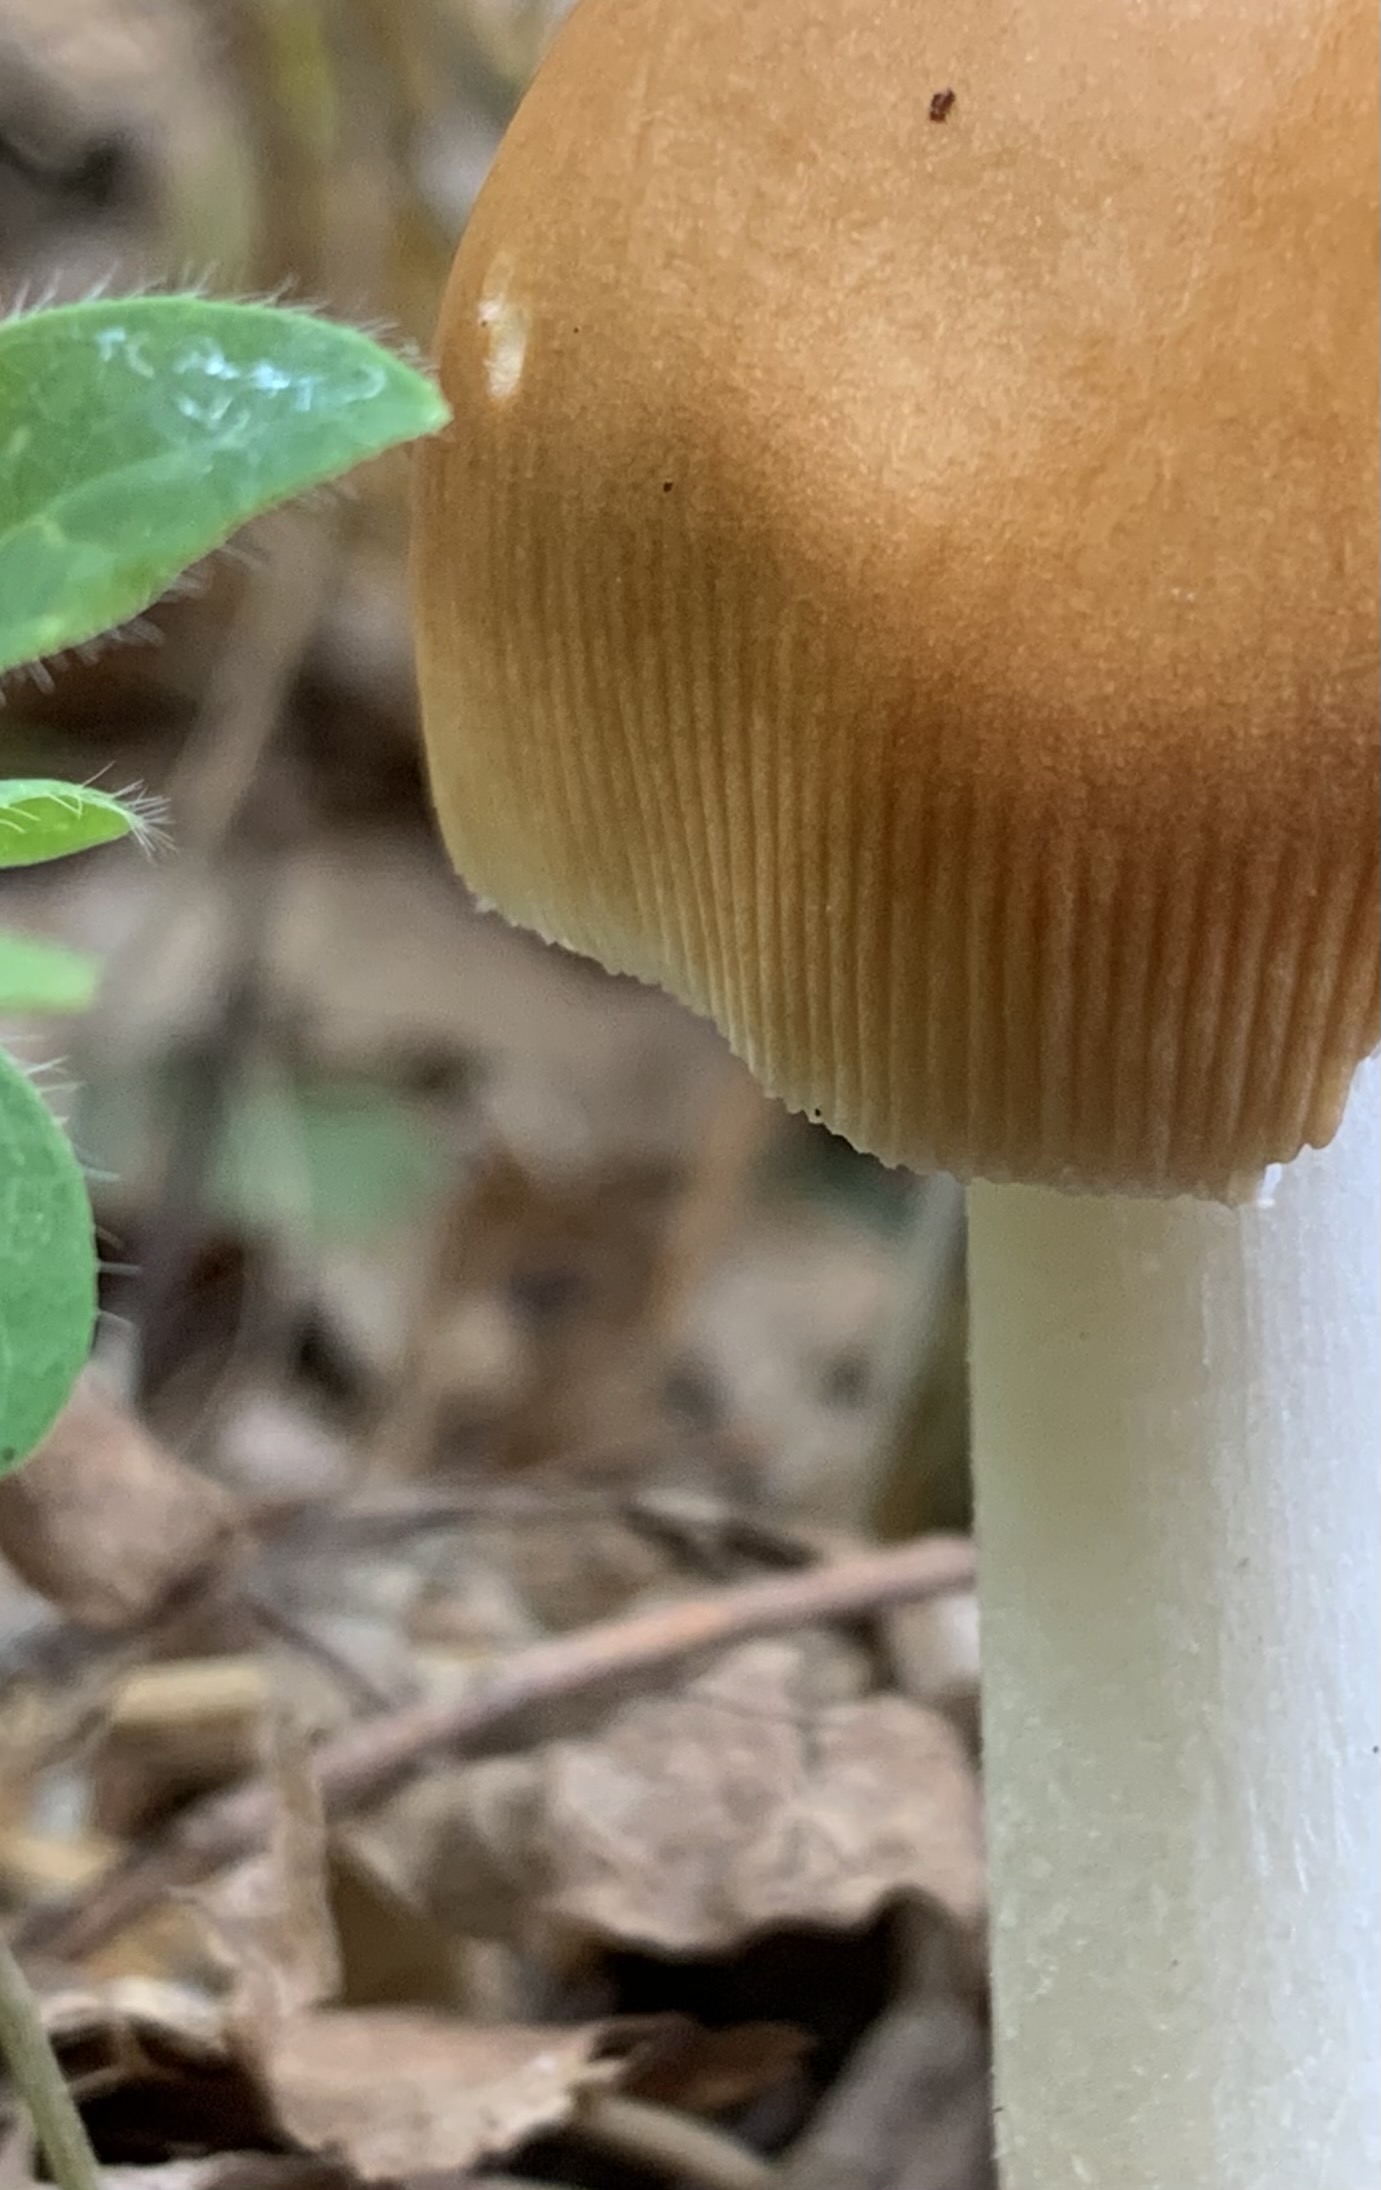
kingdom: Fungi
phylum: Basidiomycota
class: Agaricomycetes
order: Agaricales
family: Amanitaceae
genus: Amanita
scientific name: Amanita fulva
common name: brun kam-fluesvamp
